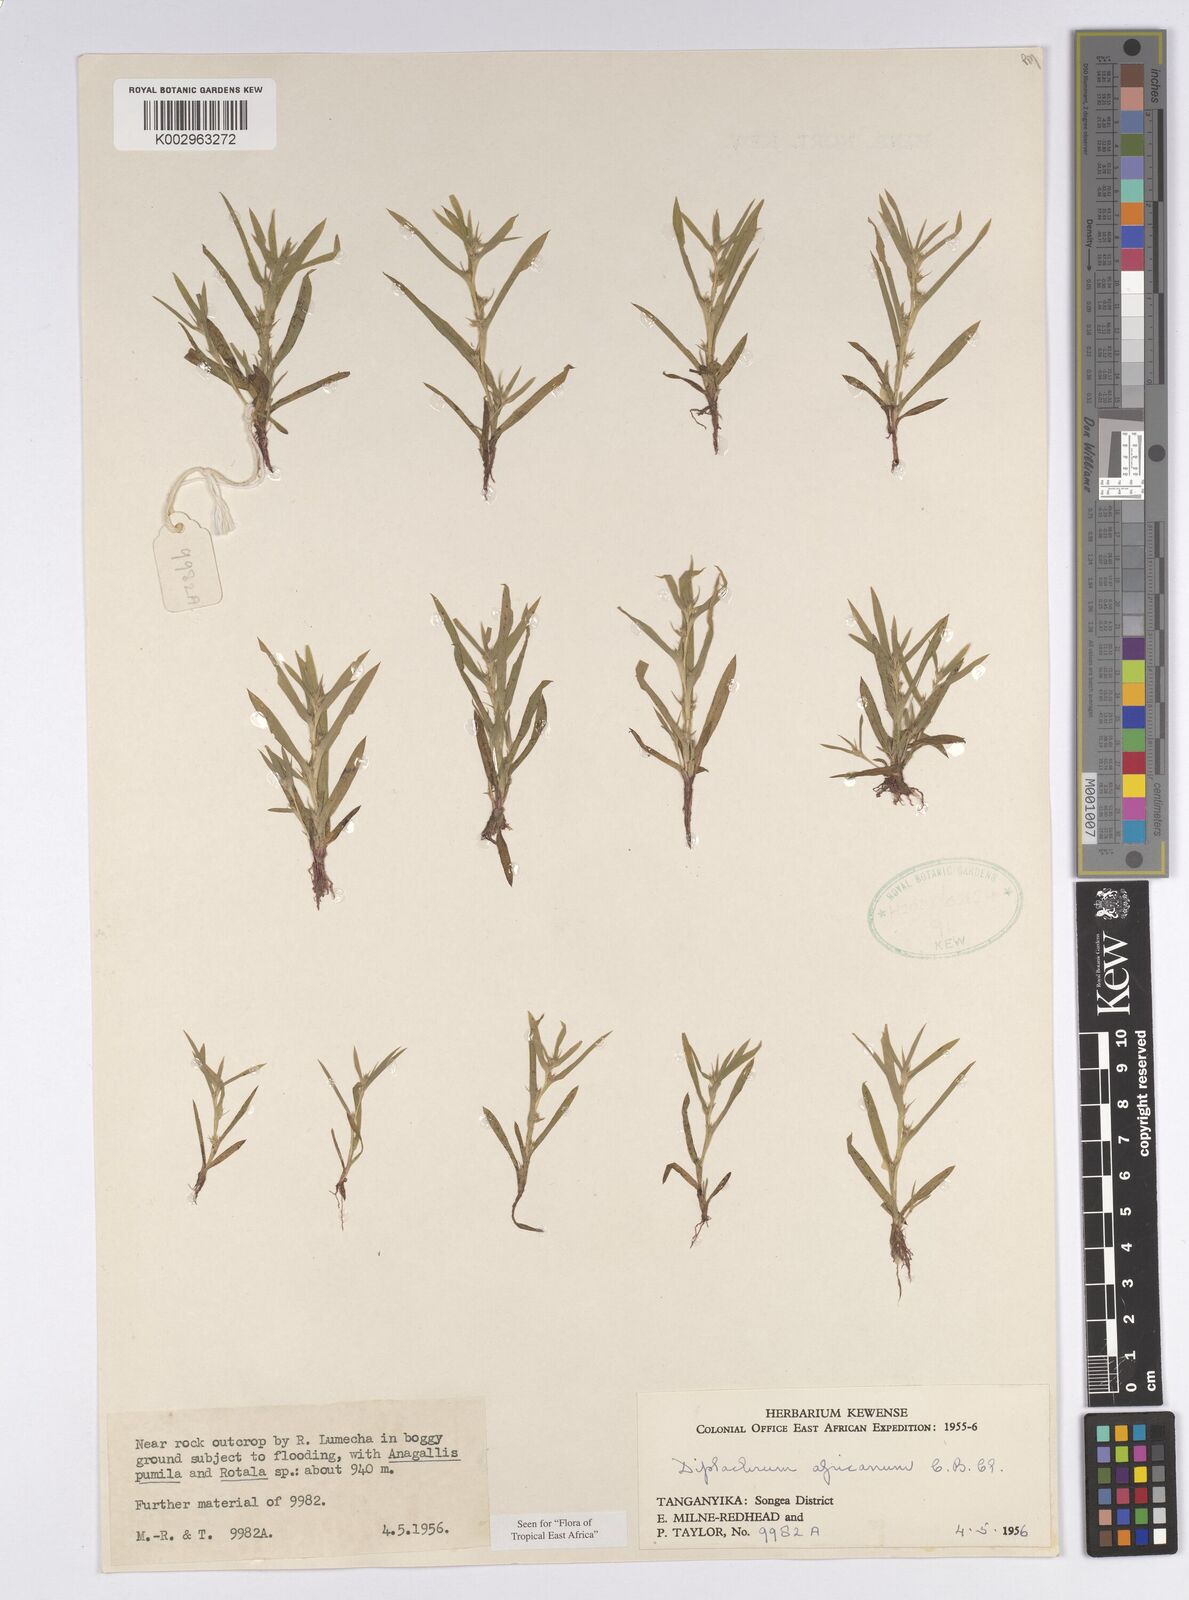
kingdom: Plantae
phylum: Tracheophyta
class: Liliopsida
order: Poales
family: Cyperaceae
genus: Diplacrum
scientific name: Diplacrum africanum
